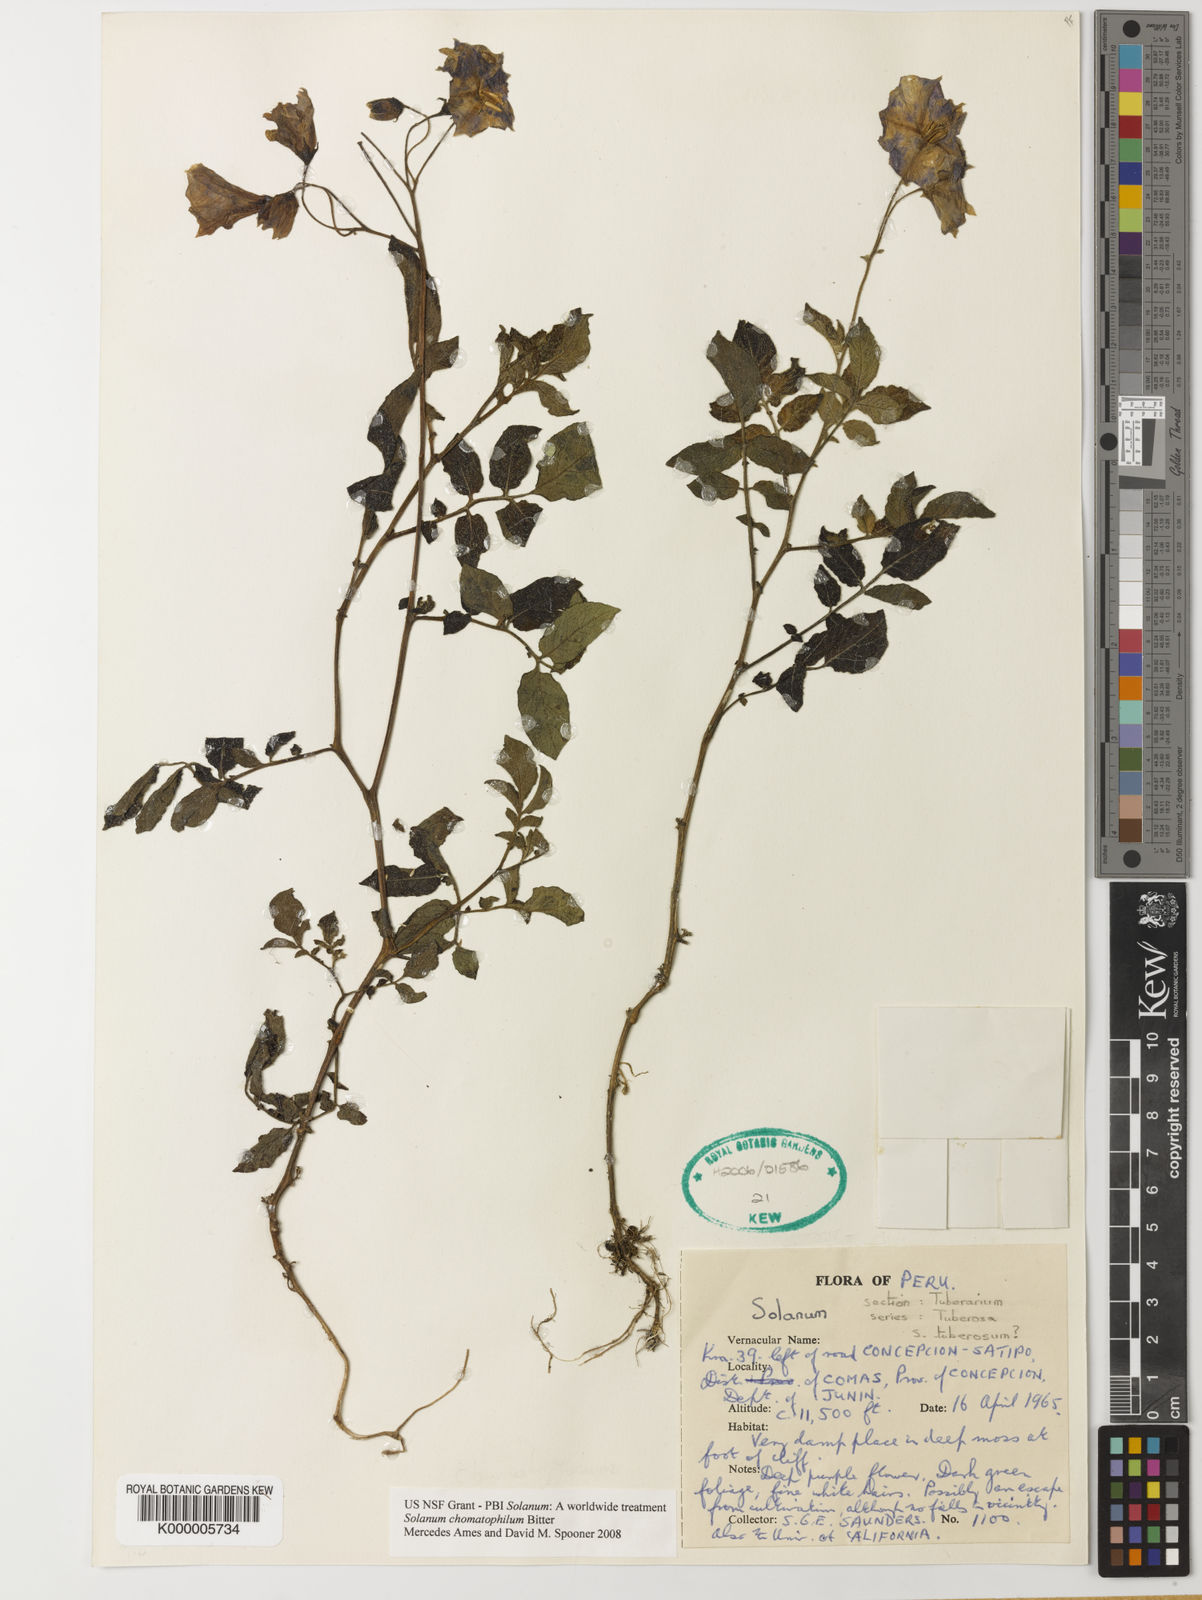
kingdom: Plantae
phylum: Tracheophyta
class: Magnoliopsida
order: Solanales
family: Solanaceae
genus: Solanum
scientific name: Solanum chomatophilum
